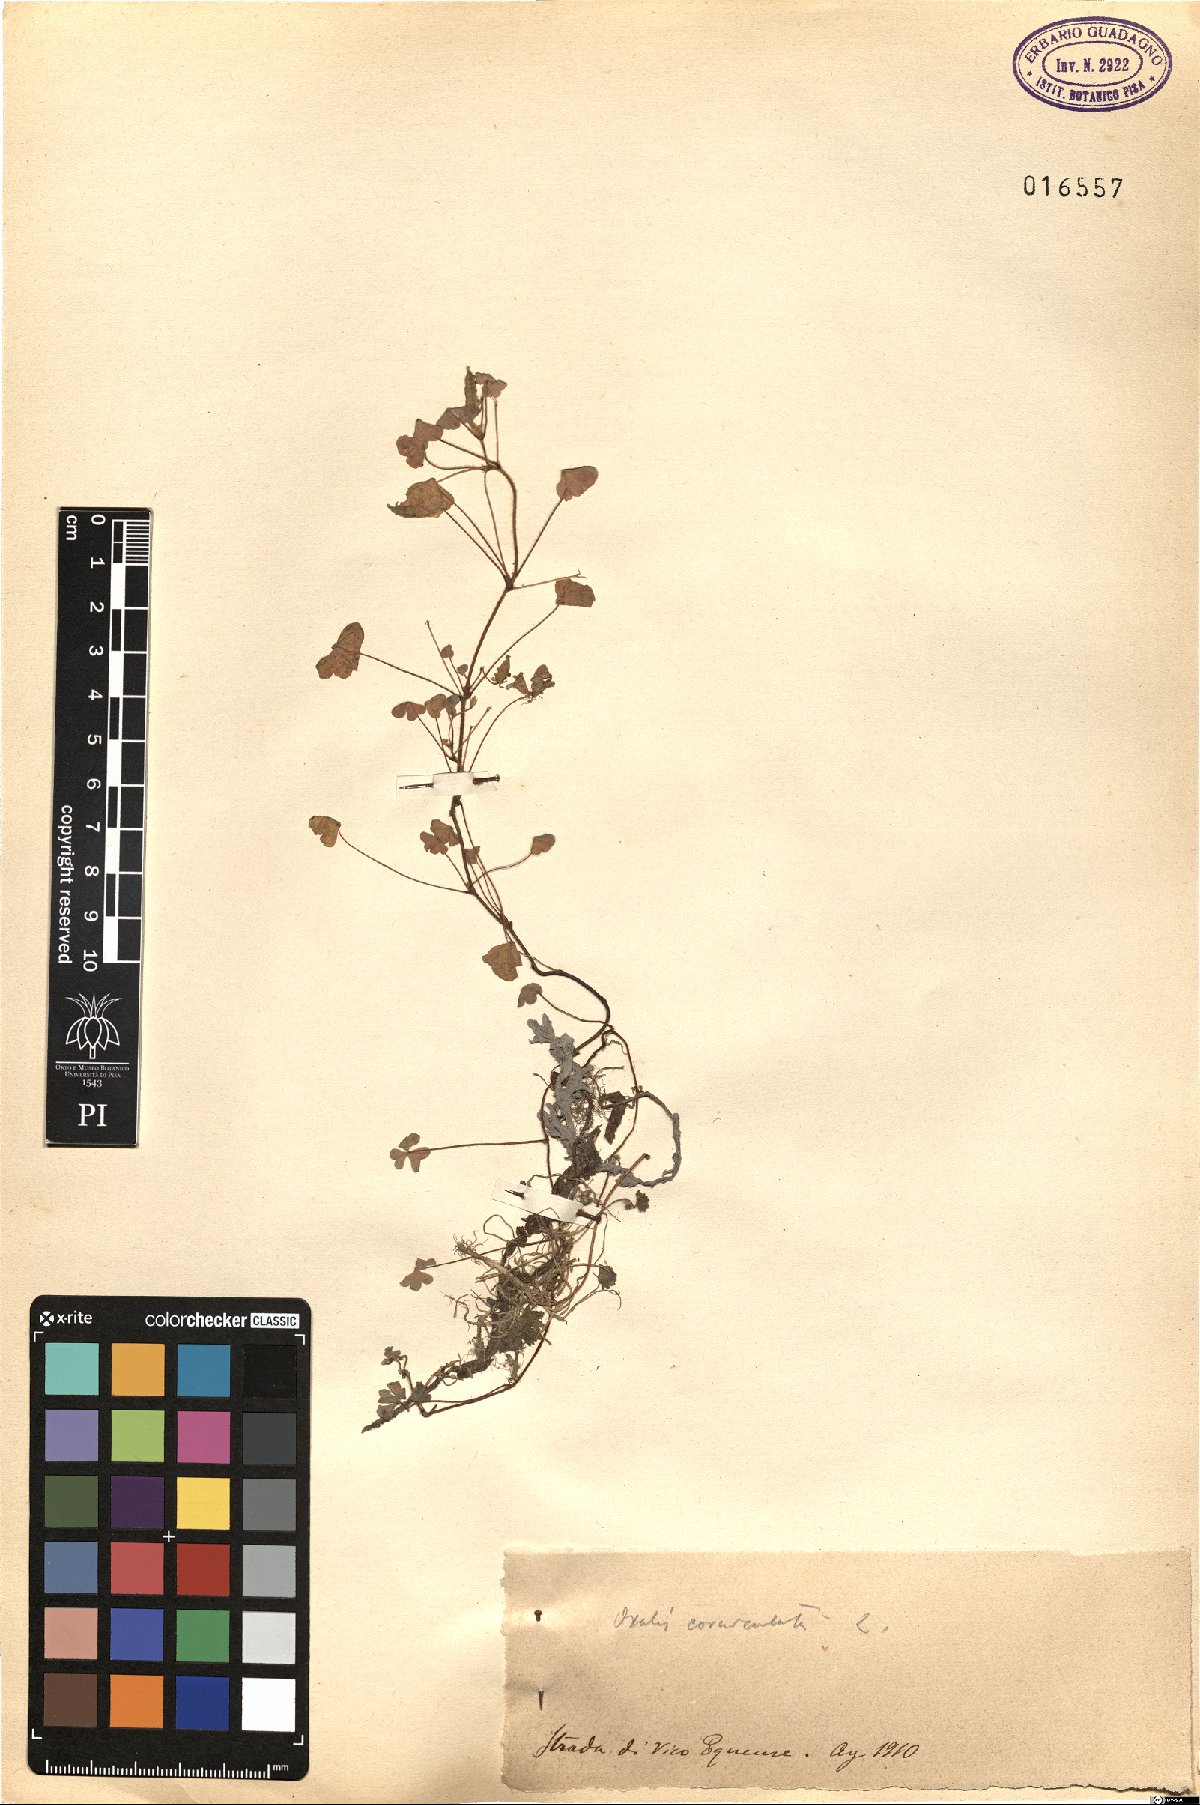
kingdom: Plantae
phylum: Tracheophyta
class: Magnoliopsida
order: Oxalidales
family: Oxalidaceae
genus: Oxalis
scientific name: Oxalis corniculata
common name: Procumbent yellow-sorrel
